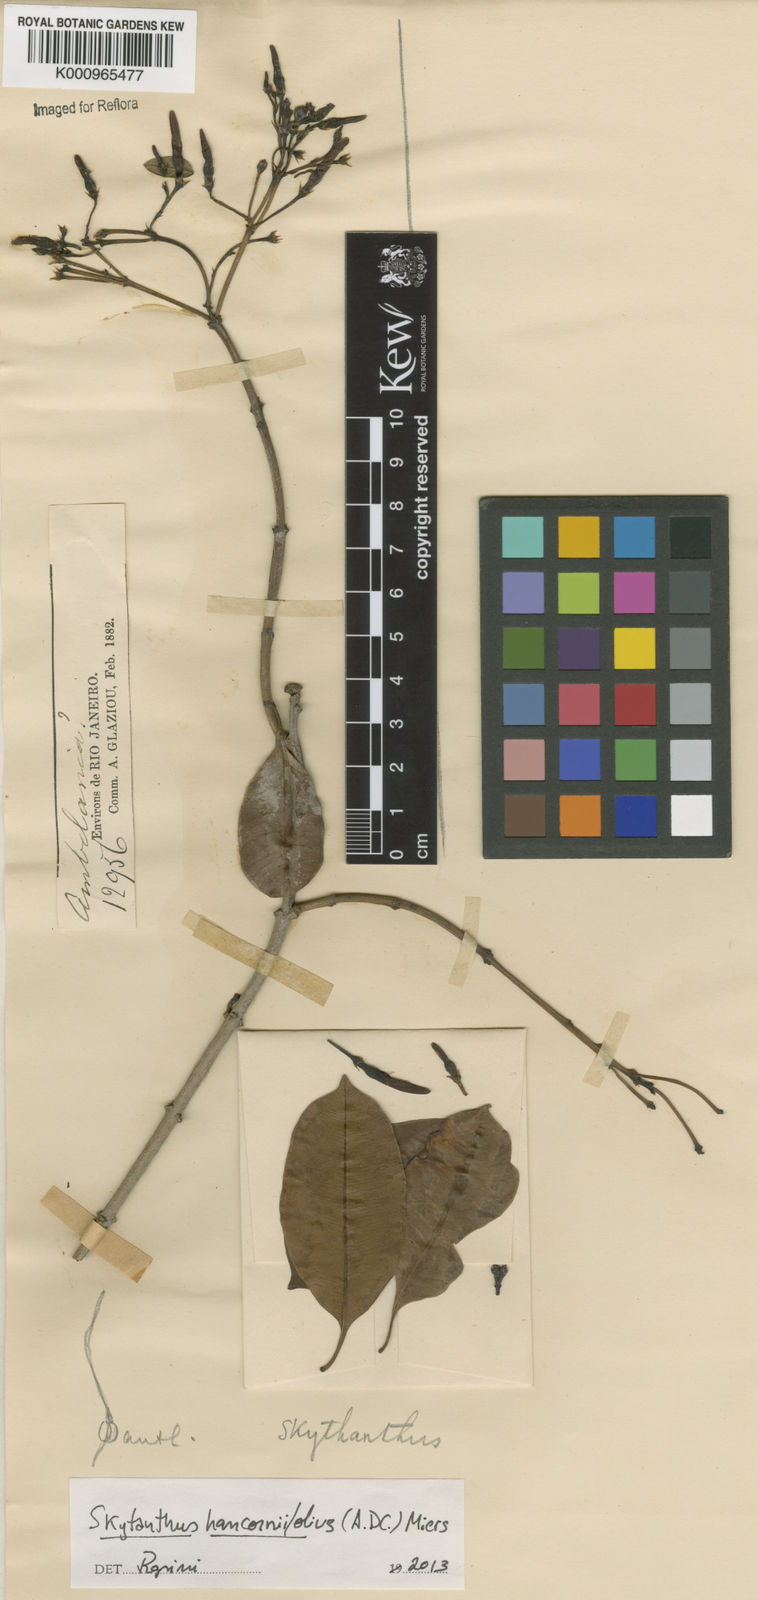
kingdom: Plantae
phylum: Tracheophyta
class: Magnoliopsida
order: Gentianales
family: Apocynaceae
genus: Skytanthus
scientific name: Skytanthus hancorniifolius
